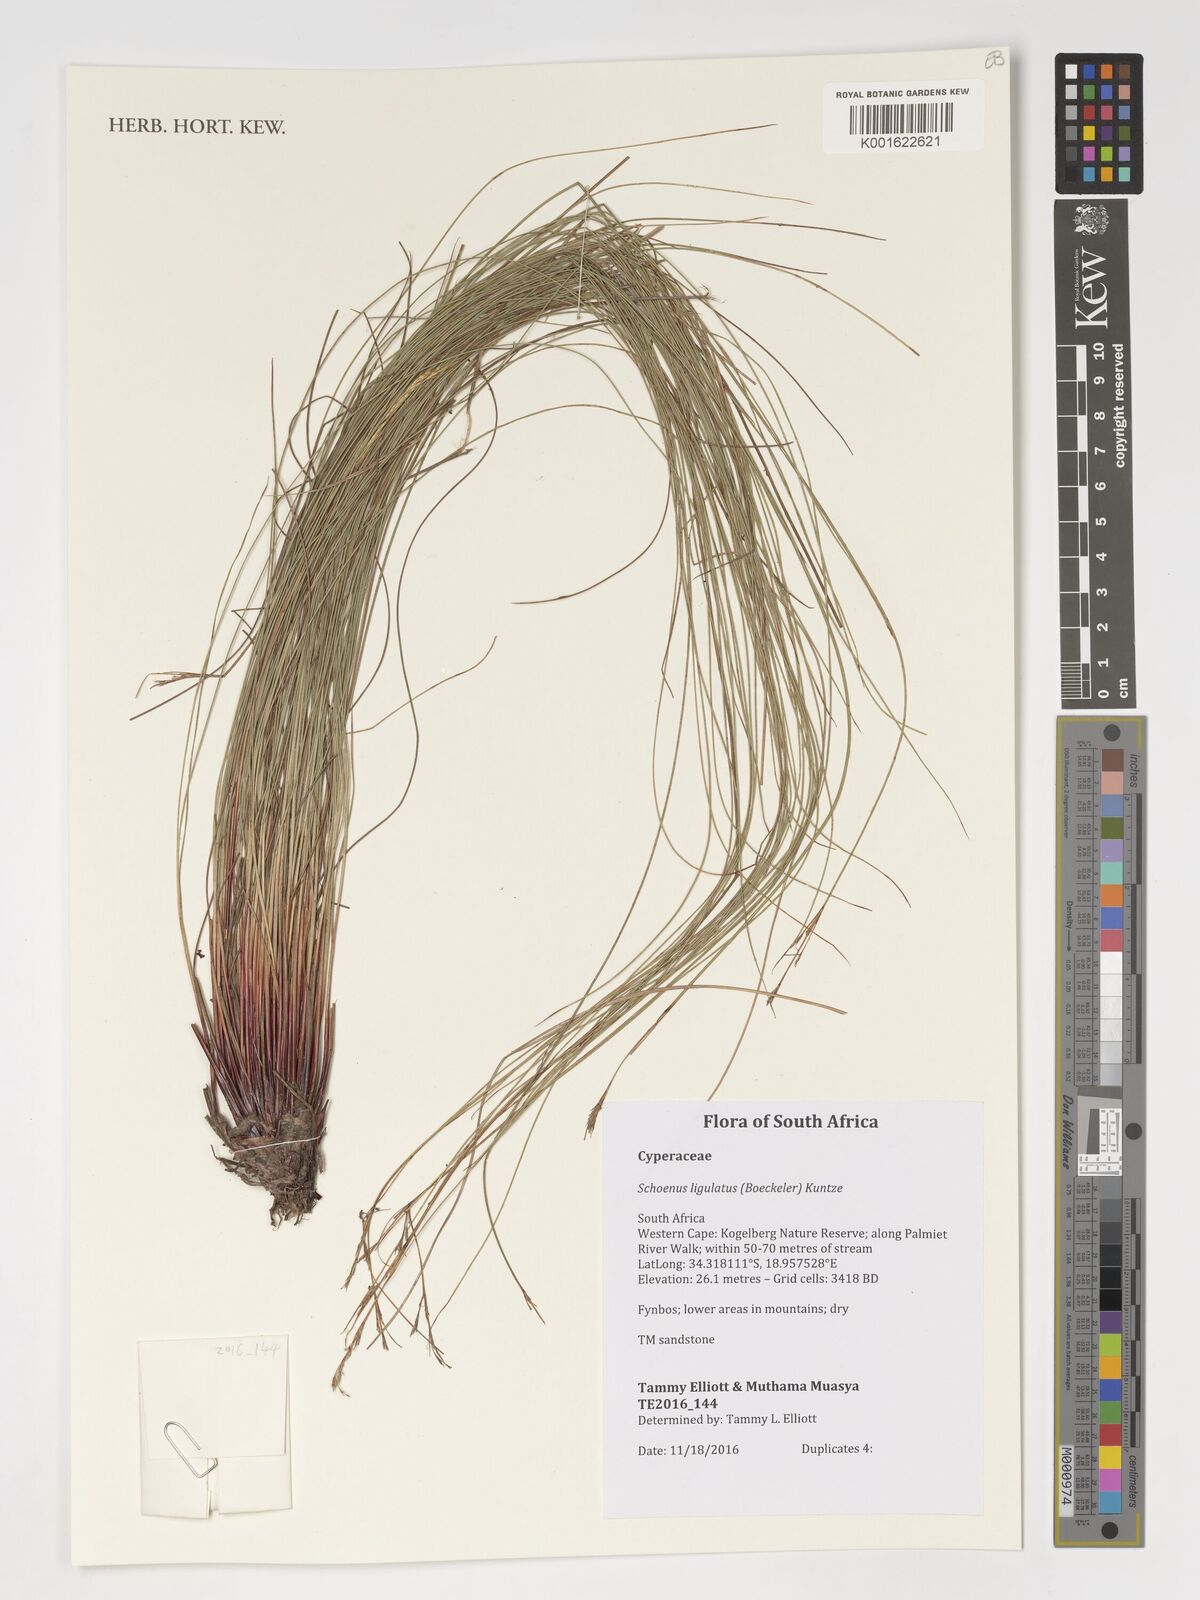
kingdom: Plantae
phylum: Tracheophyta
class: Liliopsida
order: Poales
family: Cyperaceae
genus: Schoenus
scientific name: Schoenus ligulatus
